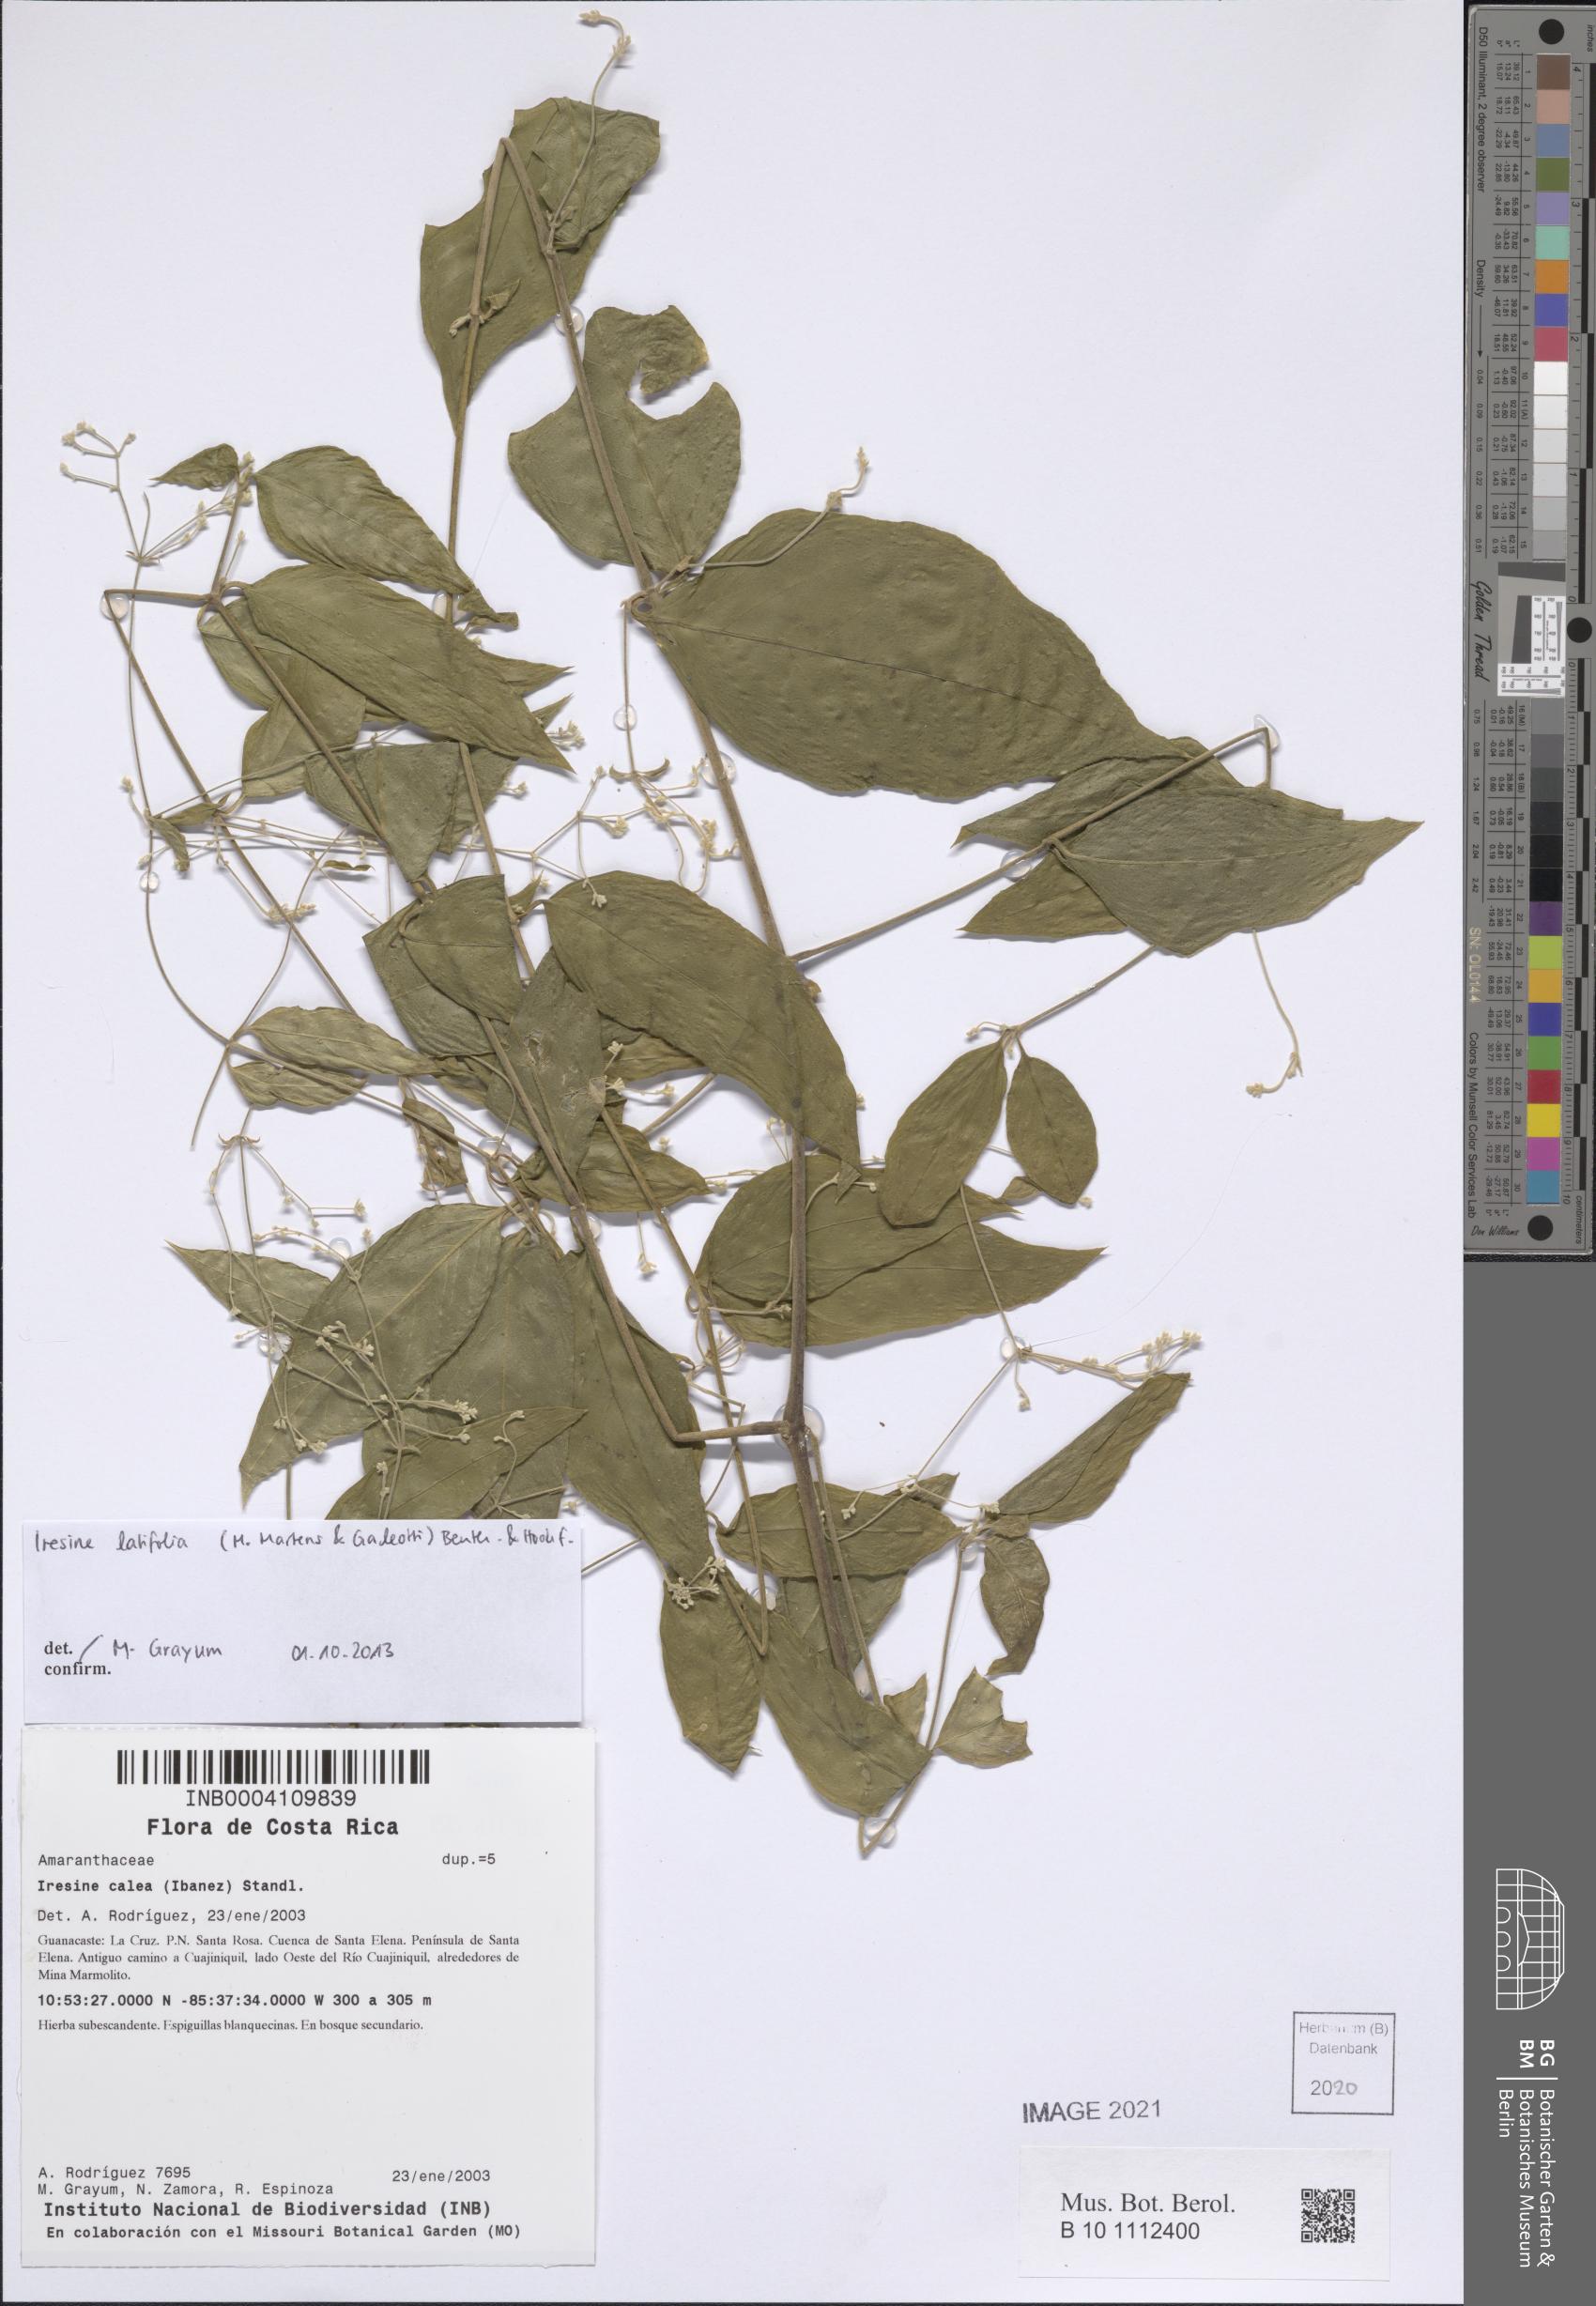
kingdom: Plantae
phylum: Tracheophyta
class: Magnoliopsida
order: Caryophyllales
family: Amaranthaceae
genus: Iresine
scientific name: Iresine latifolia
